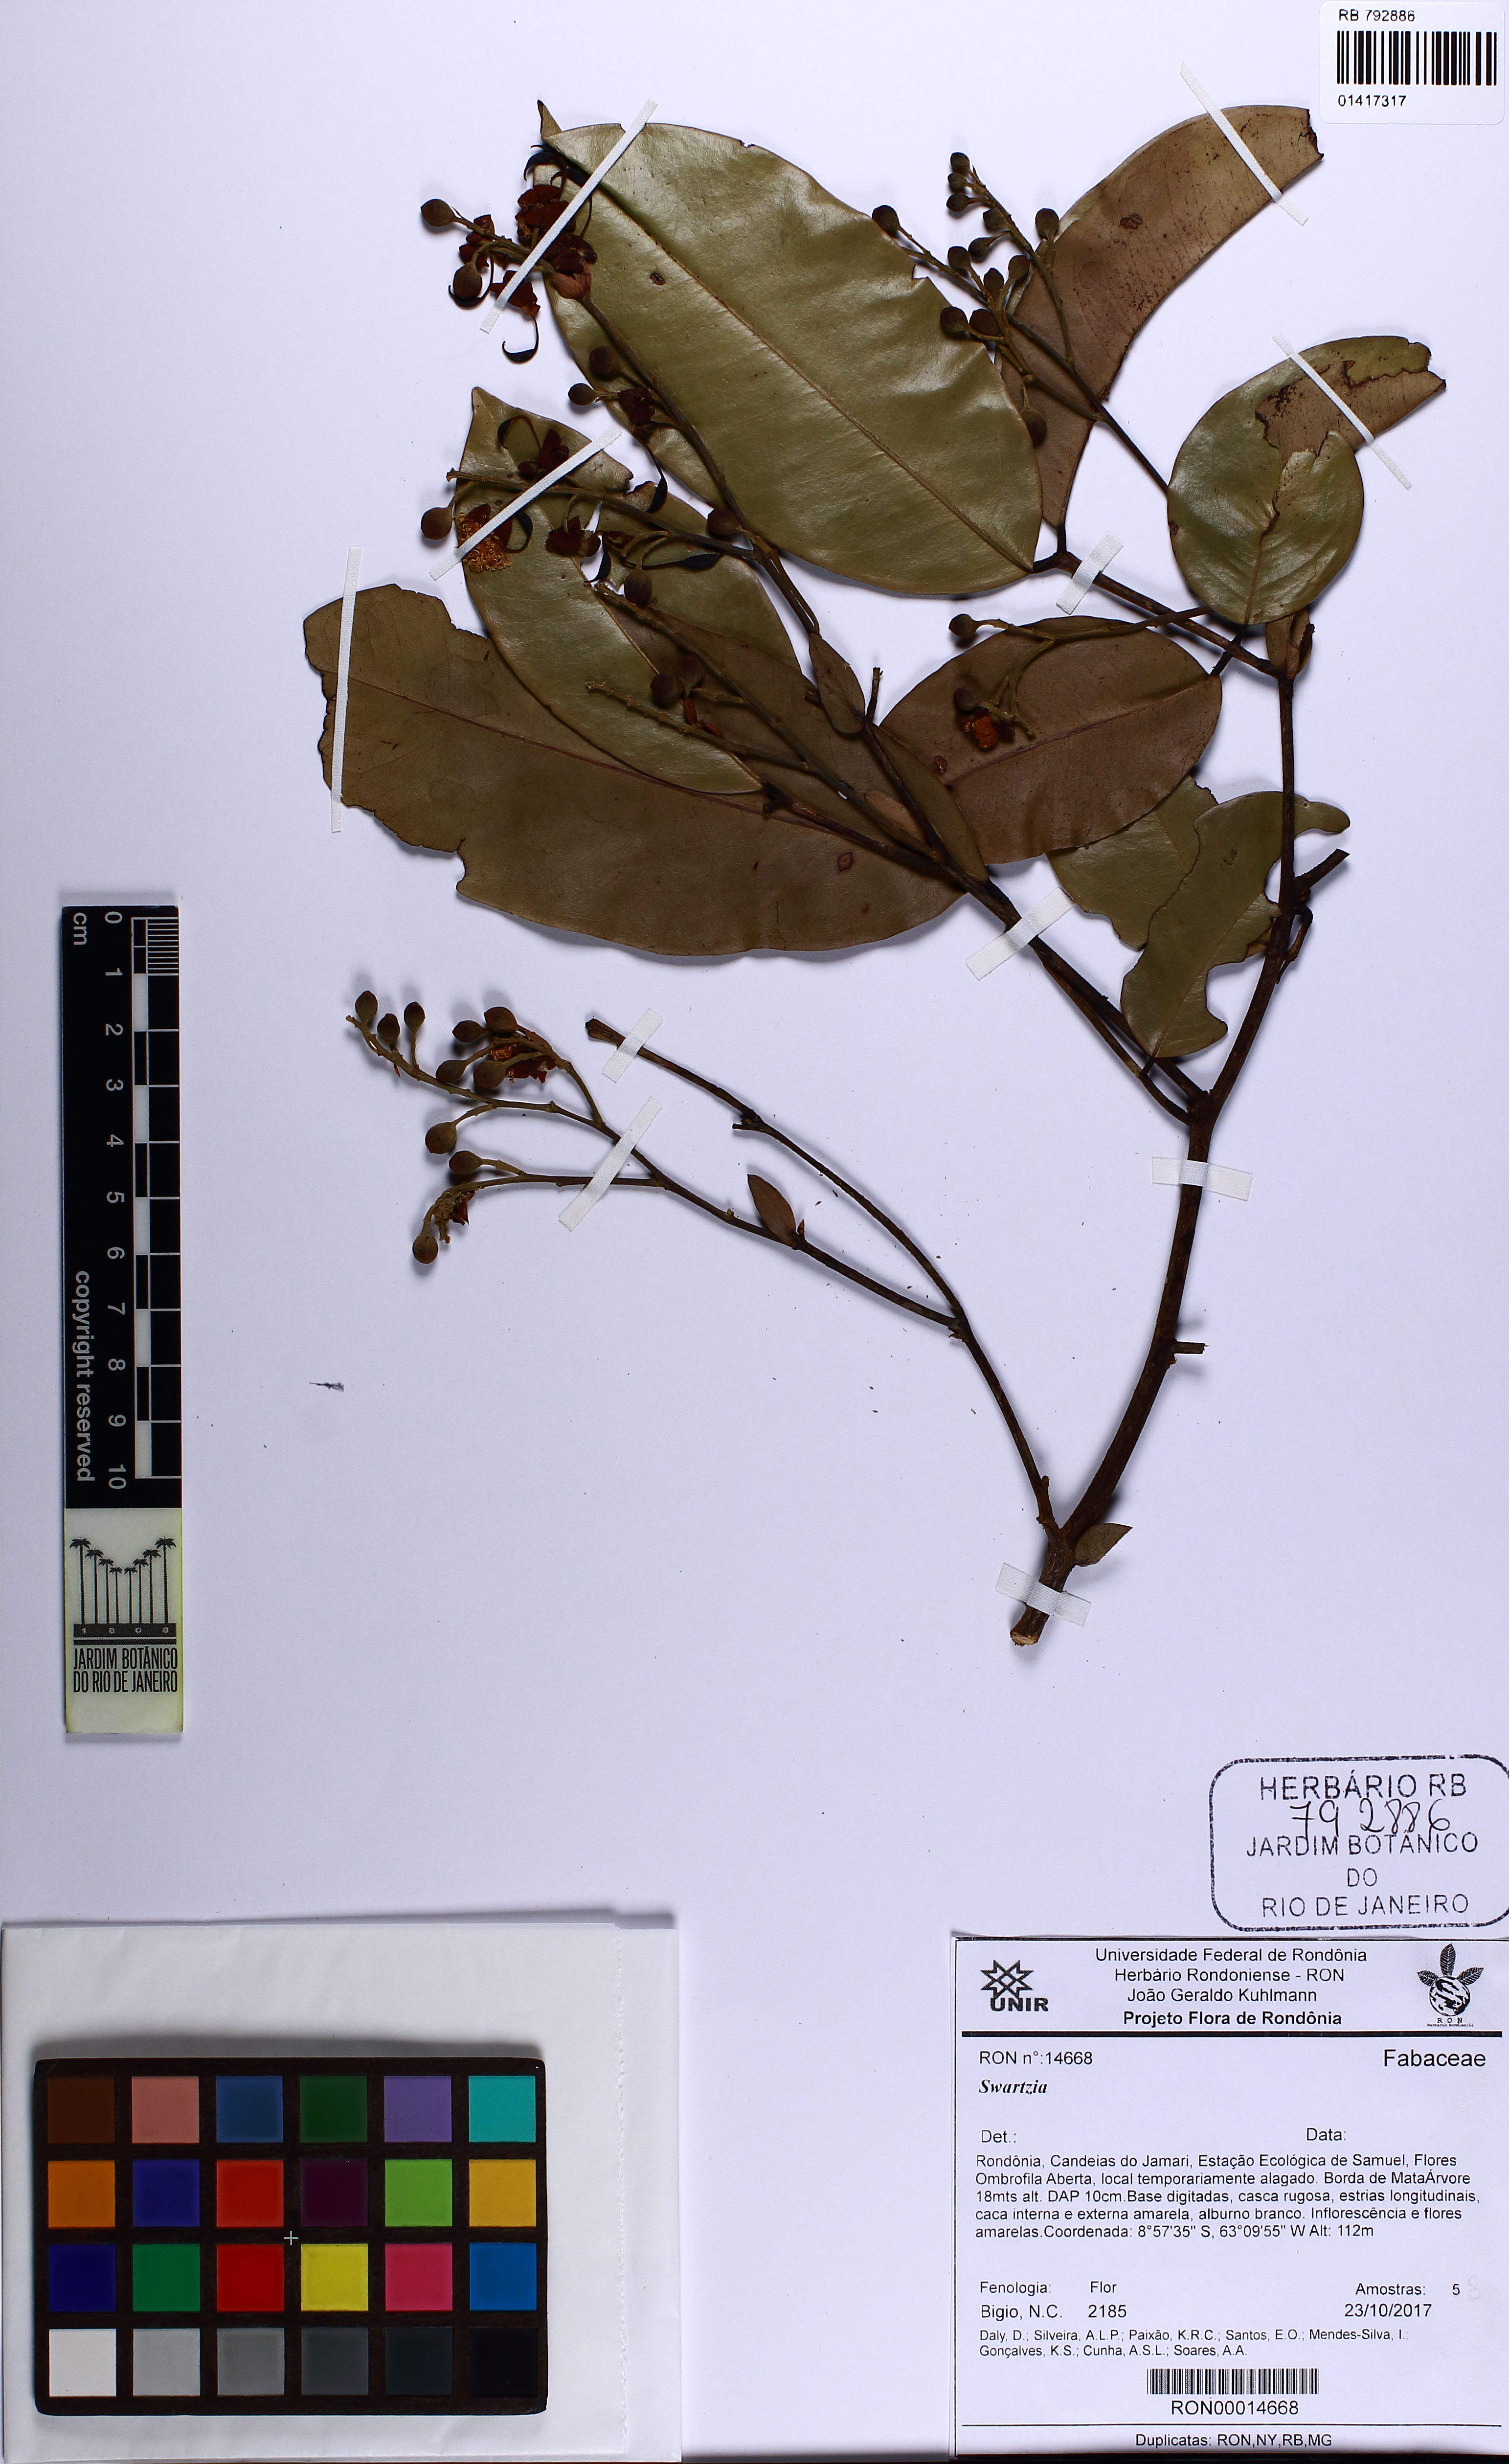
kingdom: Plantae
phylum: Tracheophyta
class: Magnoliopsida
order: Fabales
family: Fabaceae
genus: Swartzia
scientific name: Swartzia
